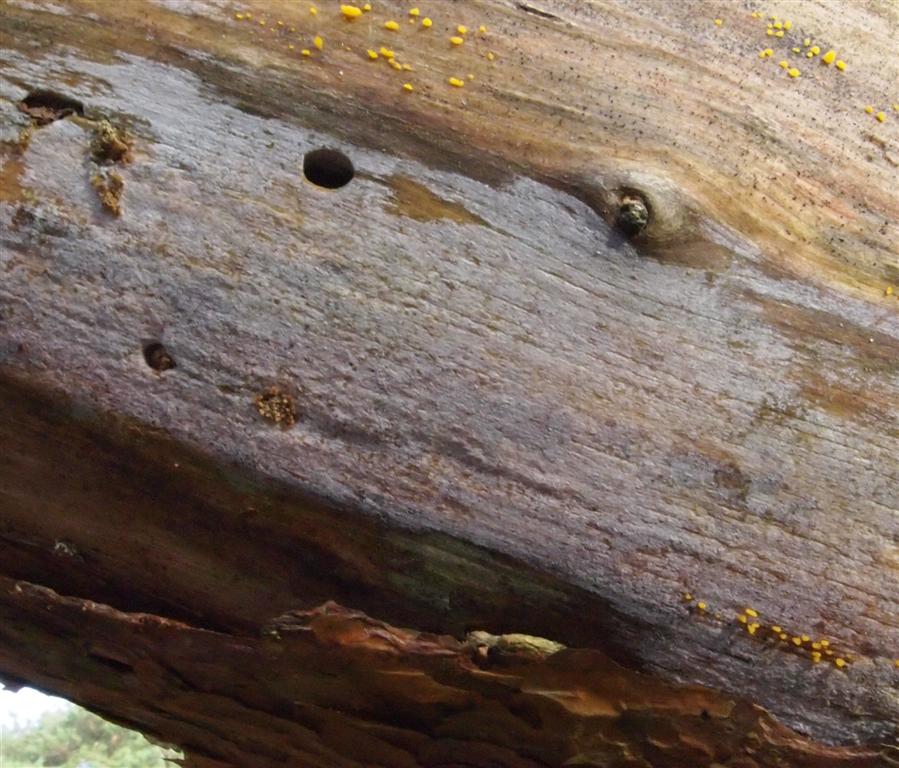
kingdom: Fungi
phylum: Basidiomycota
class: Agaricomycetes
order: Hymenochaetales
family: Rickenellaceae
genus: Peniophorella
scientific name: Peniophorella praetermissa
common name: almindelig kalkskind
